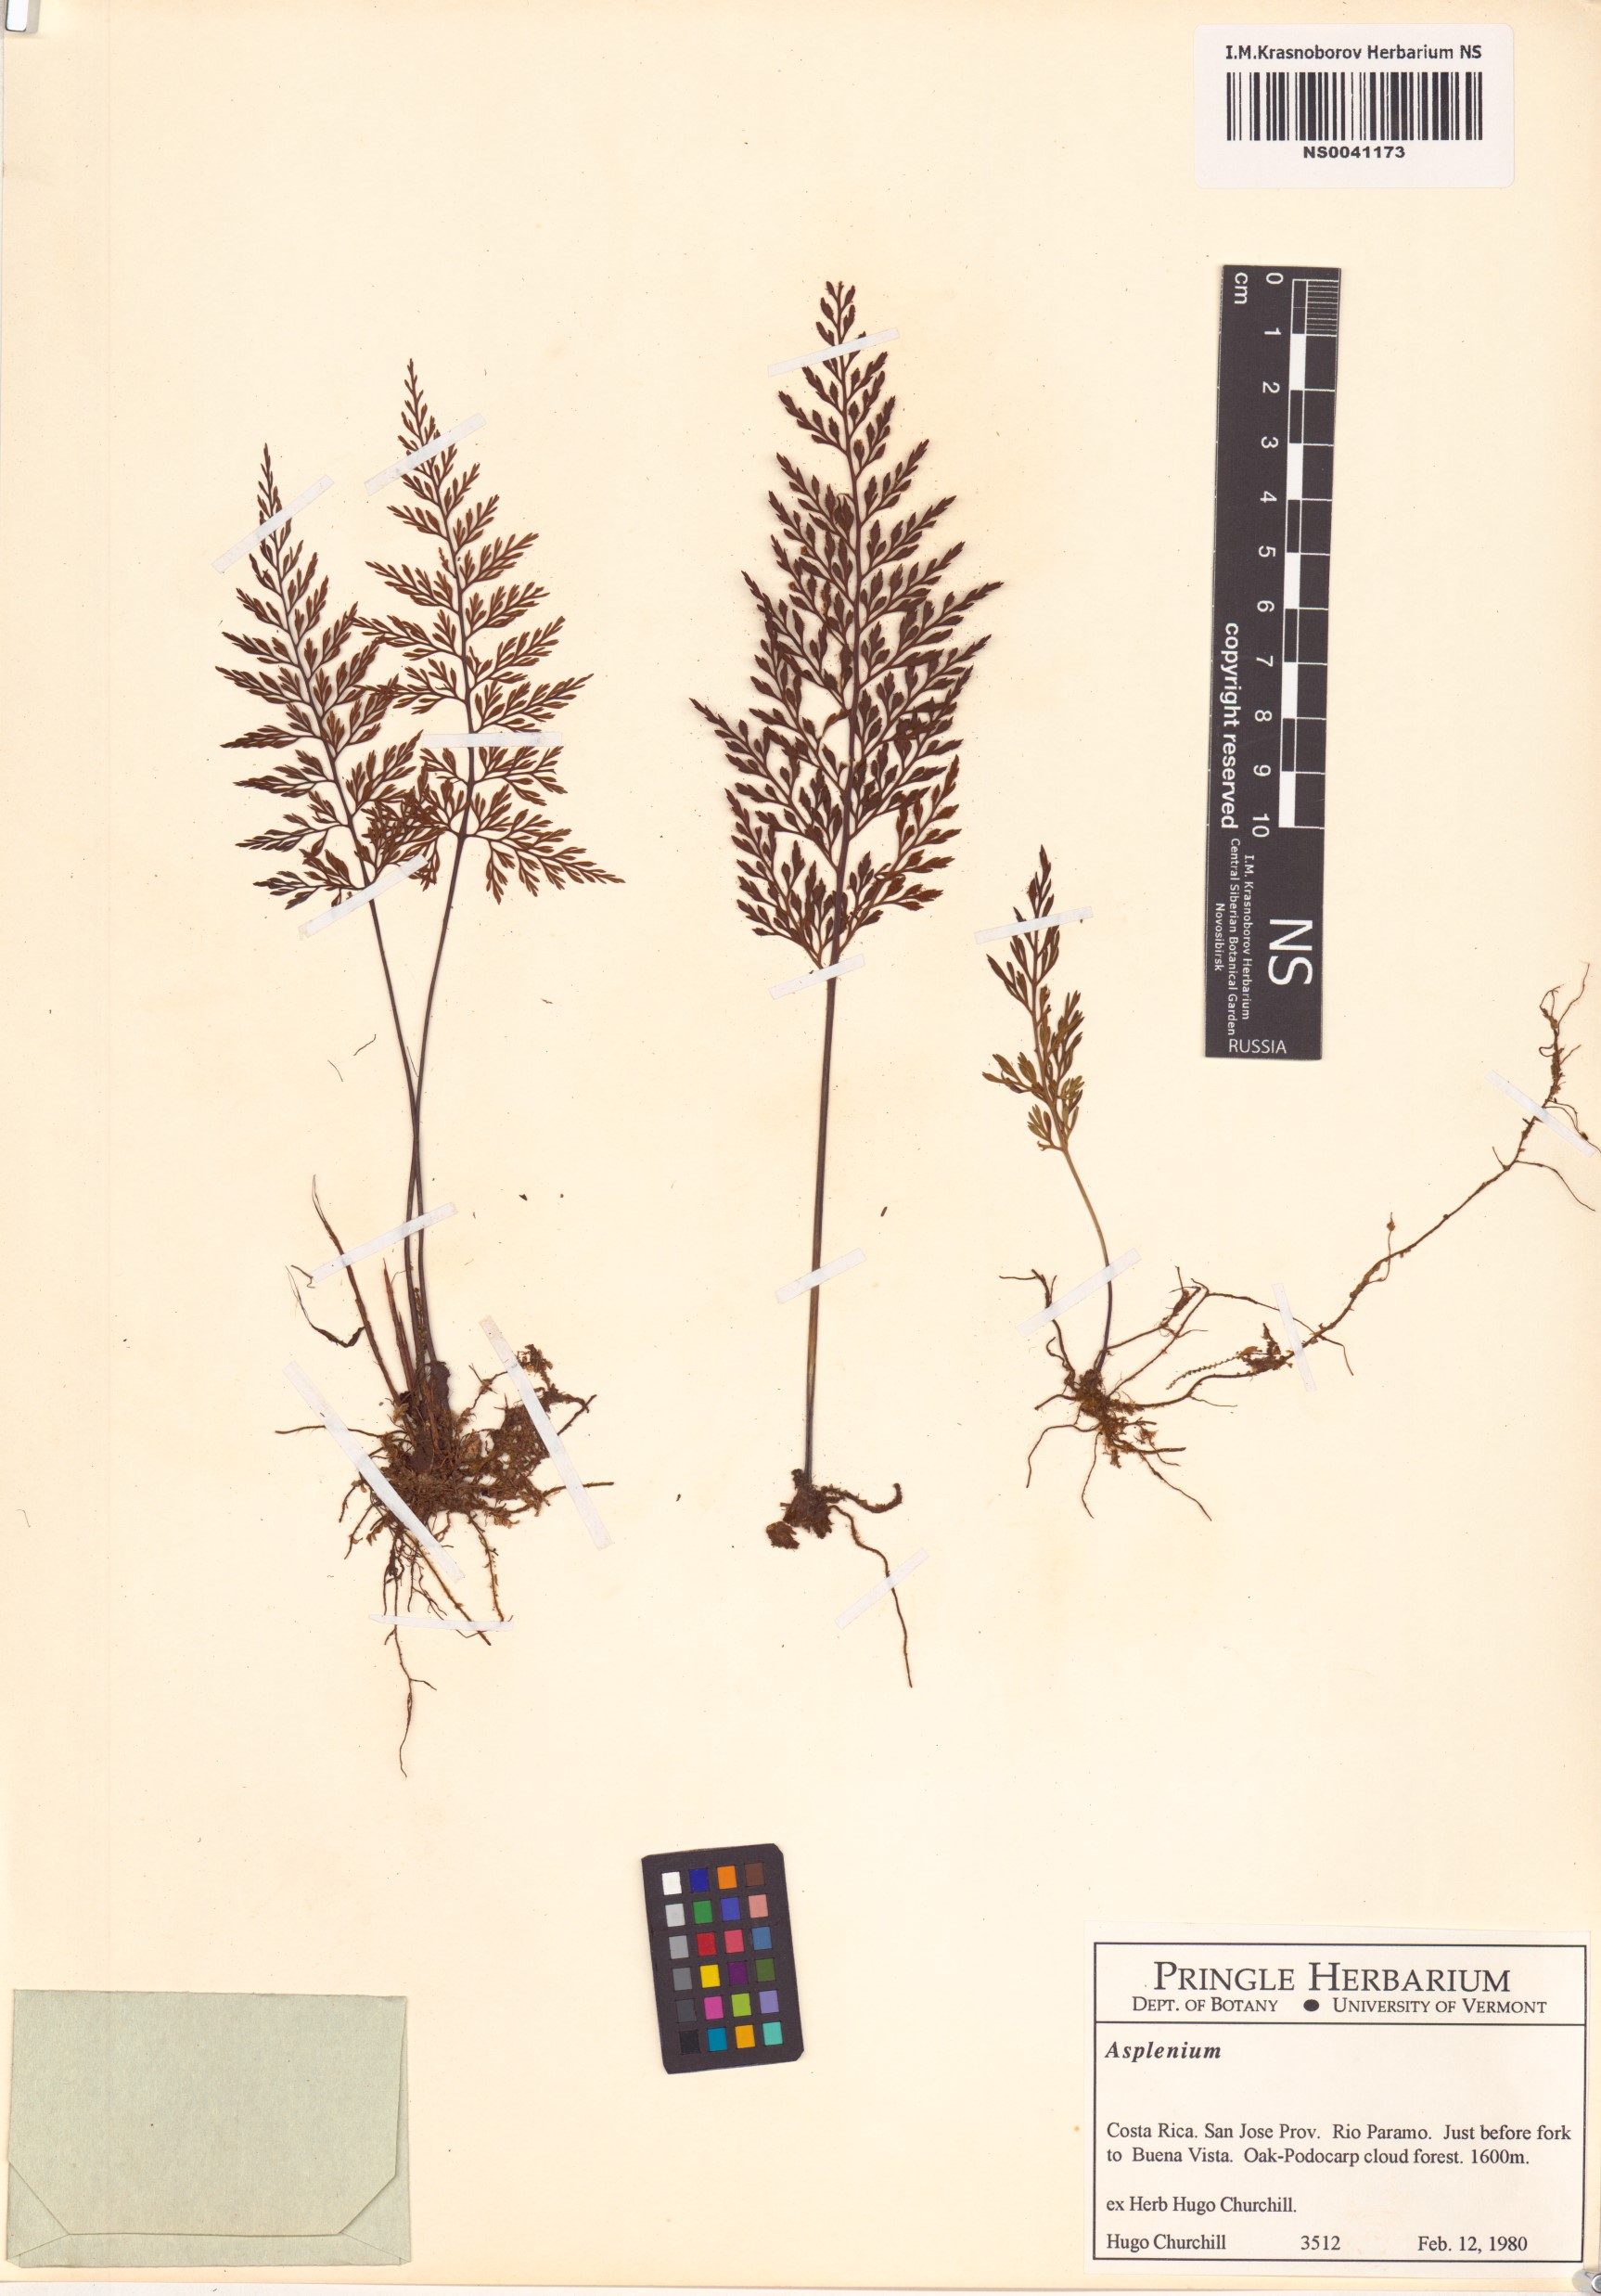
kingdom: Plantae
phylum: Tracheophyta
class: Polypodiopsida
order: Polypodiales
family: Aspleniaceae
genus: Asplenium
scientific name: Asplenium
